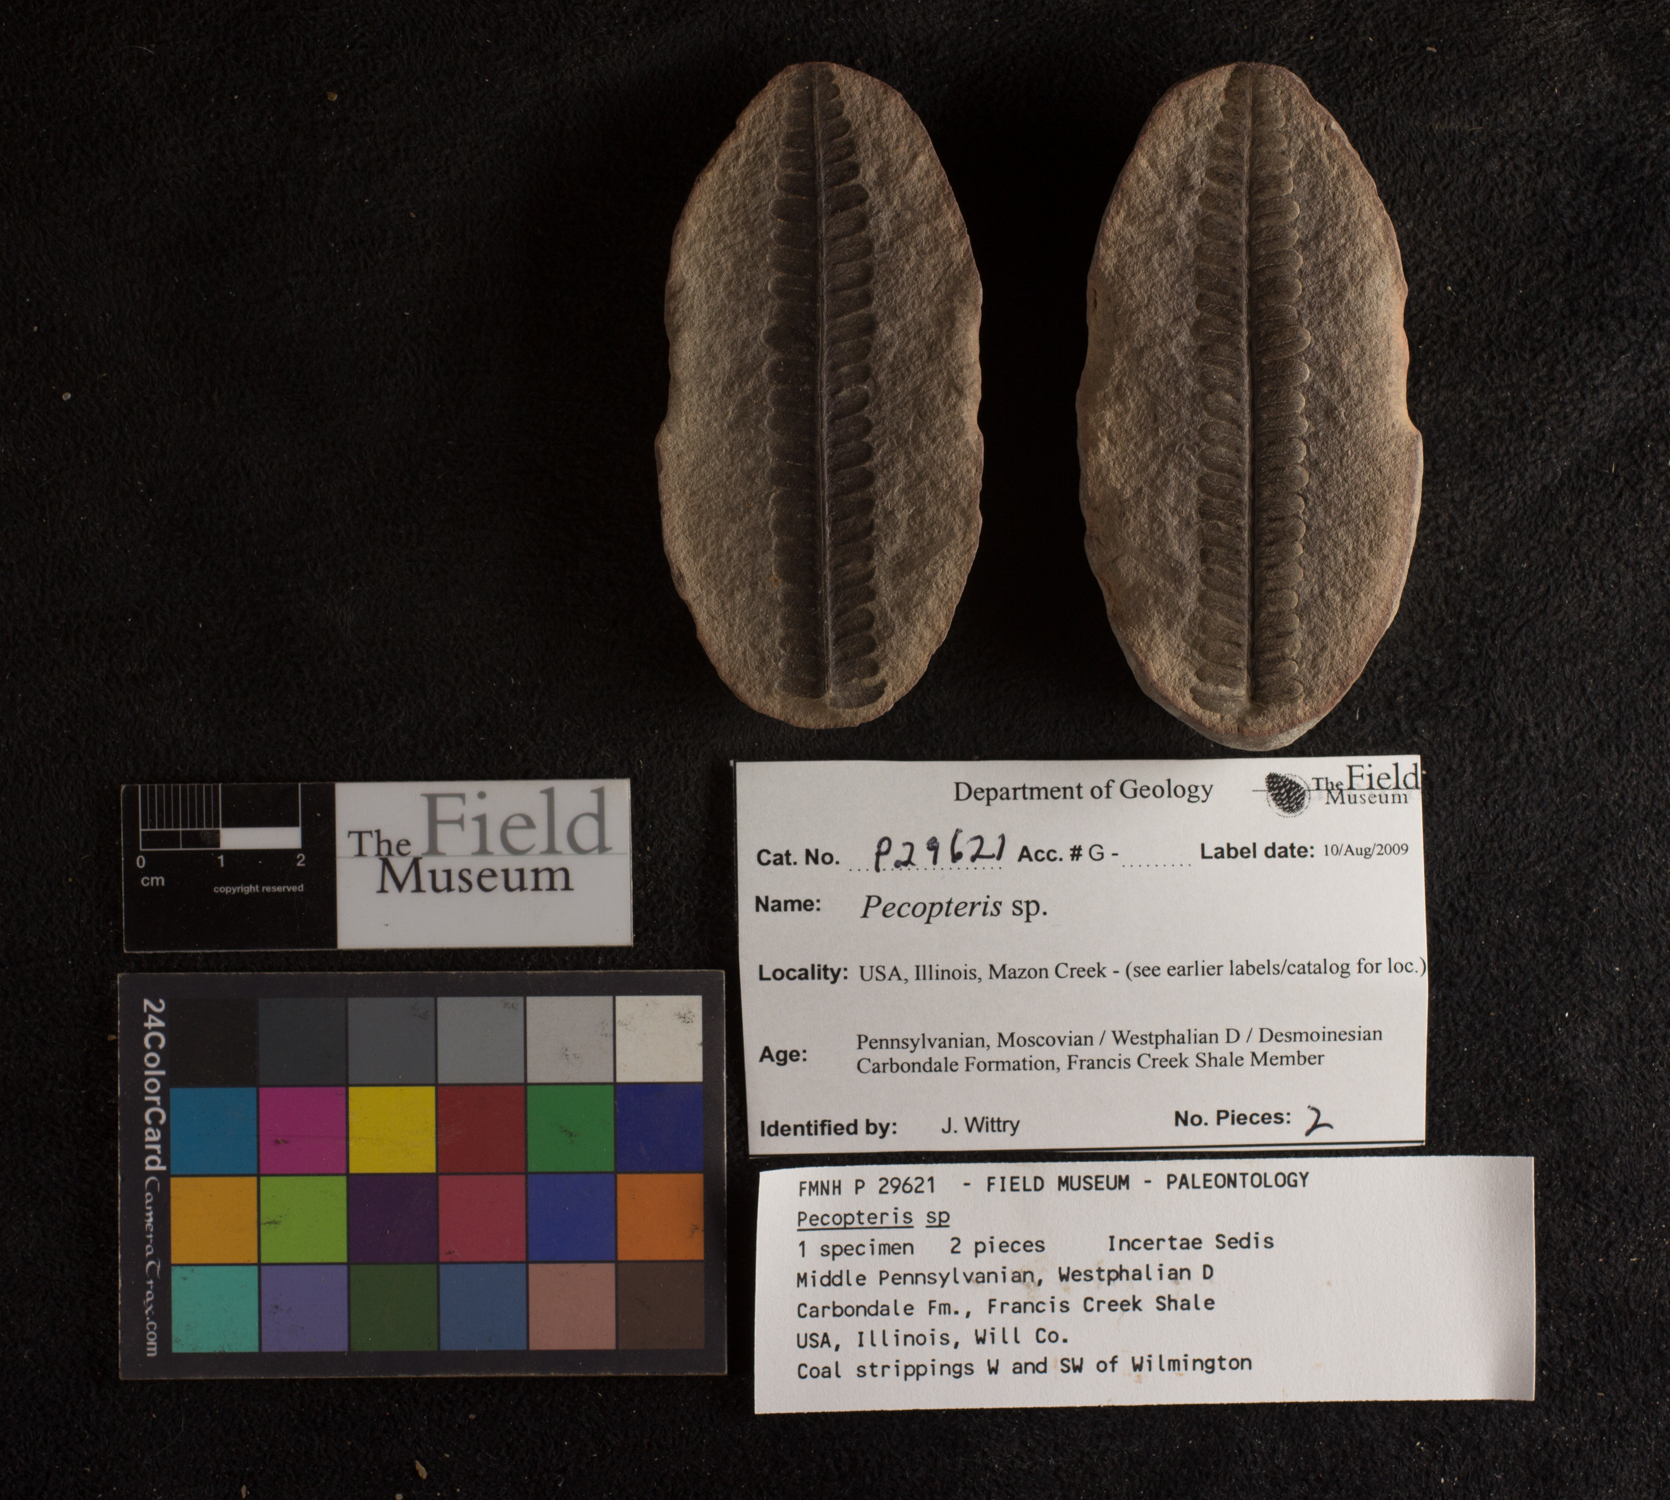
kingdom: Plantae
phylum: Tracheophyta
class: Polypodiopsida
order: Marattiales
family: Asterothecaceae
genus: Pecopteris
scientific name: Pecopteris
